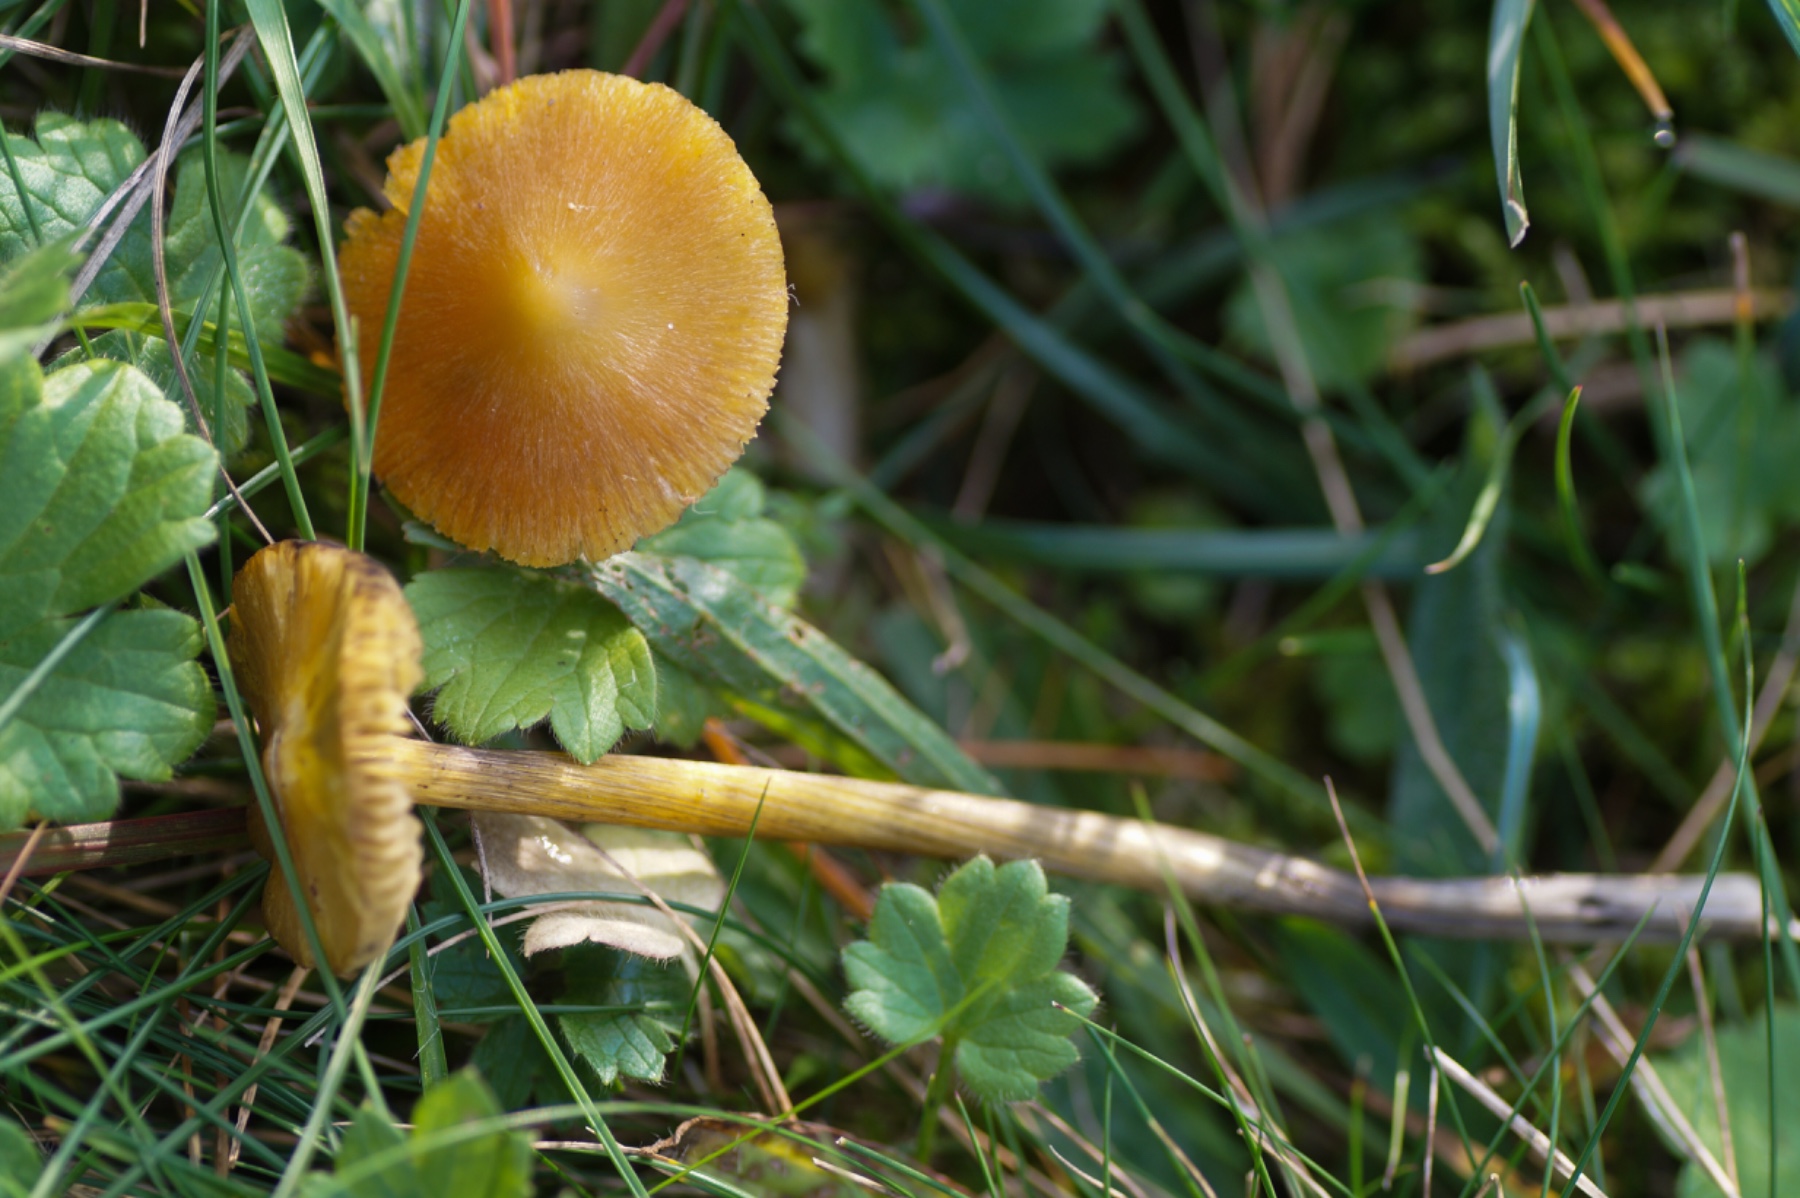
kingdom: Fungi
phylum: Basidiomycota
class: Agaricomycetes
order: Agaricales
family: Hygrophoraceae
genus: Hygrocybe
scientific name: Hygrocybe conica
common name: kegle-vokshat
